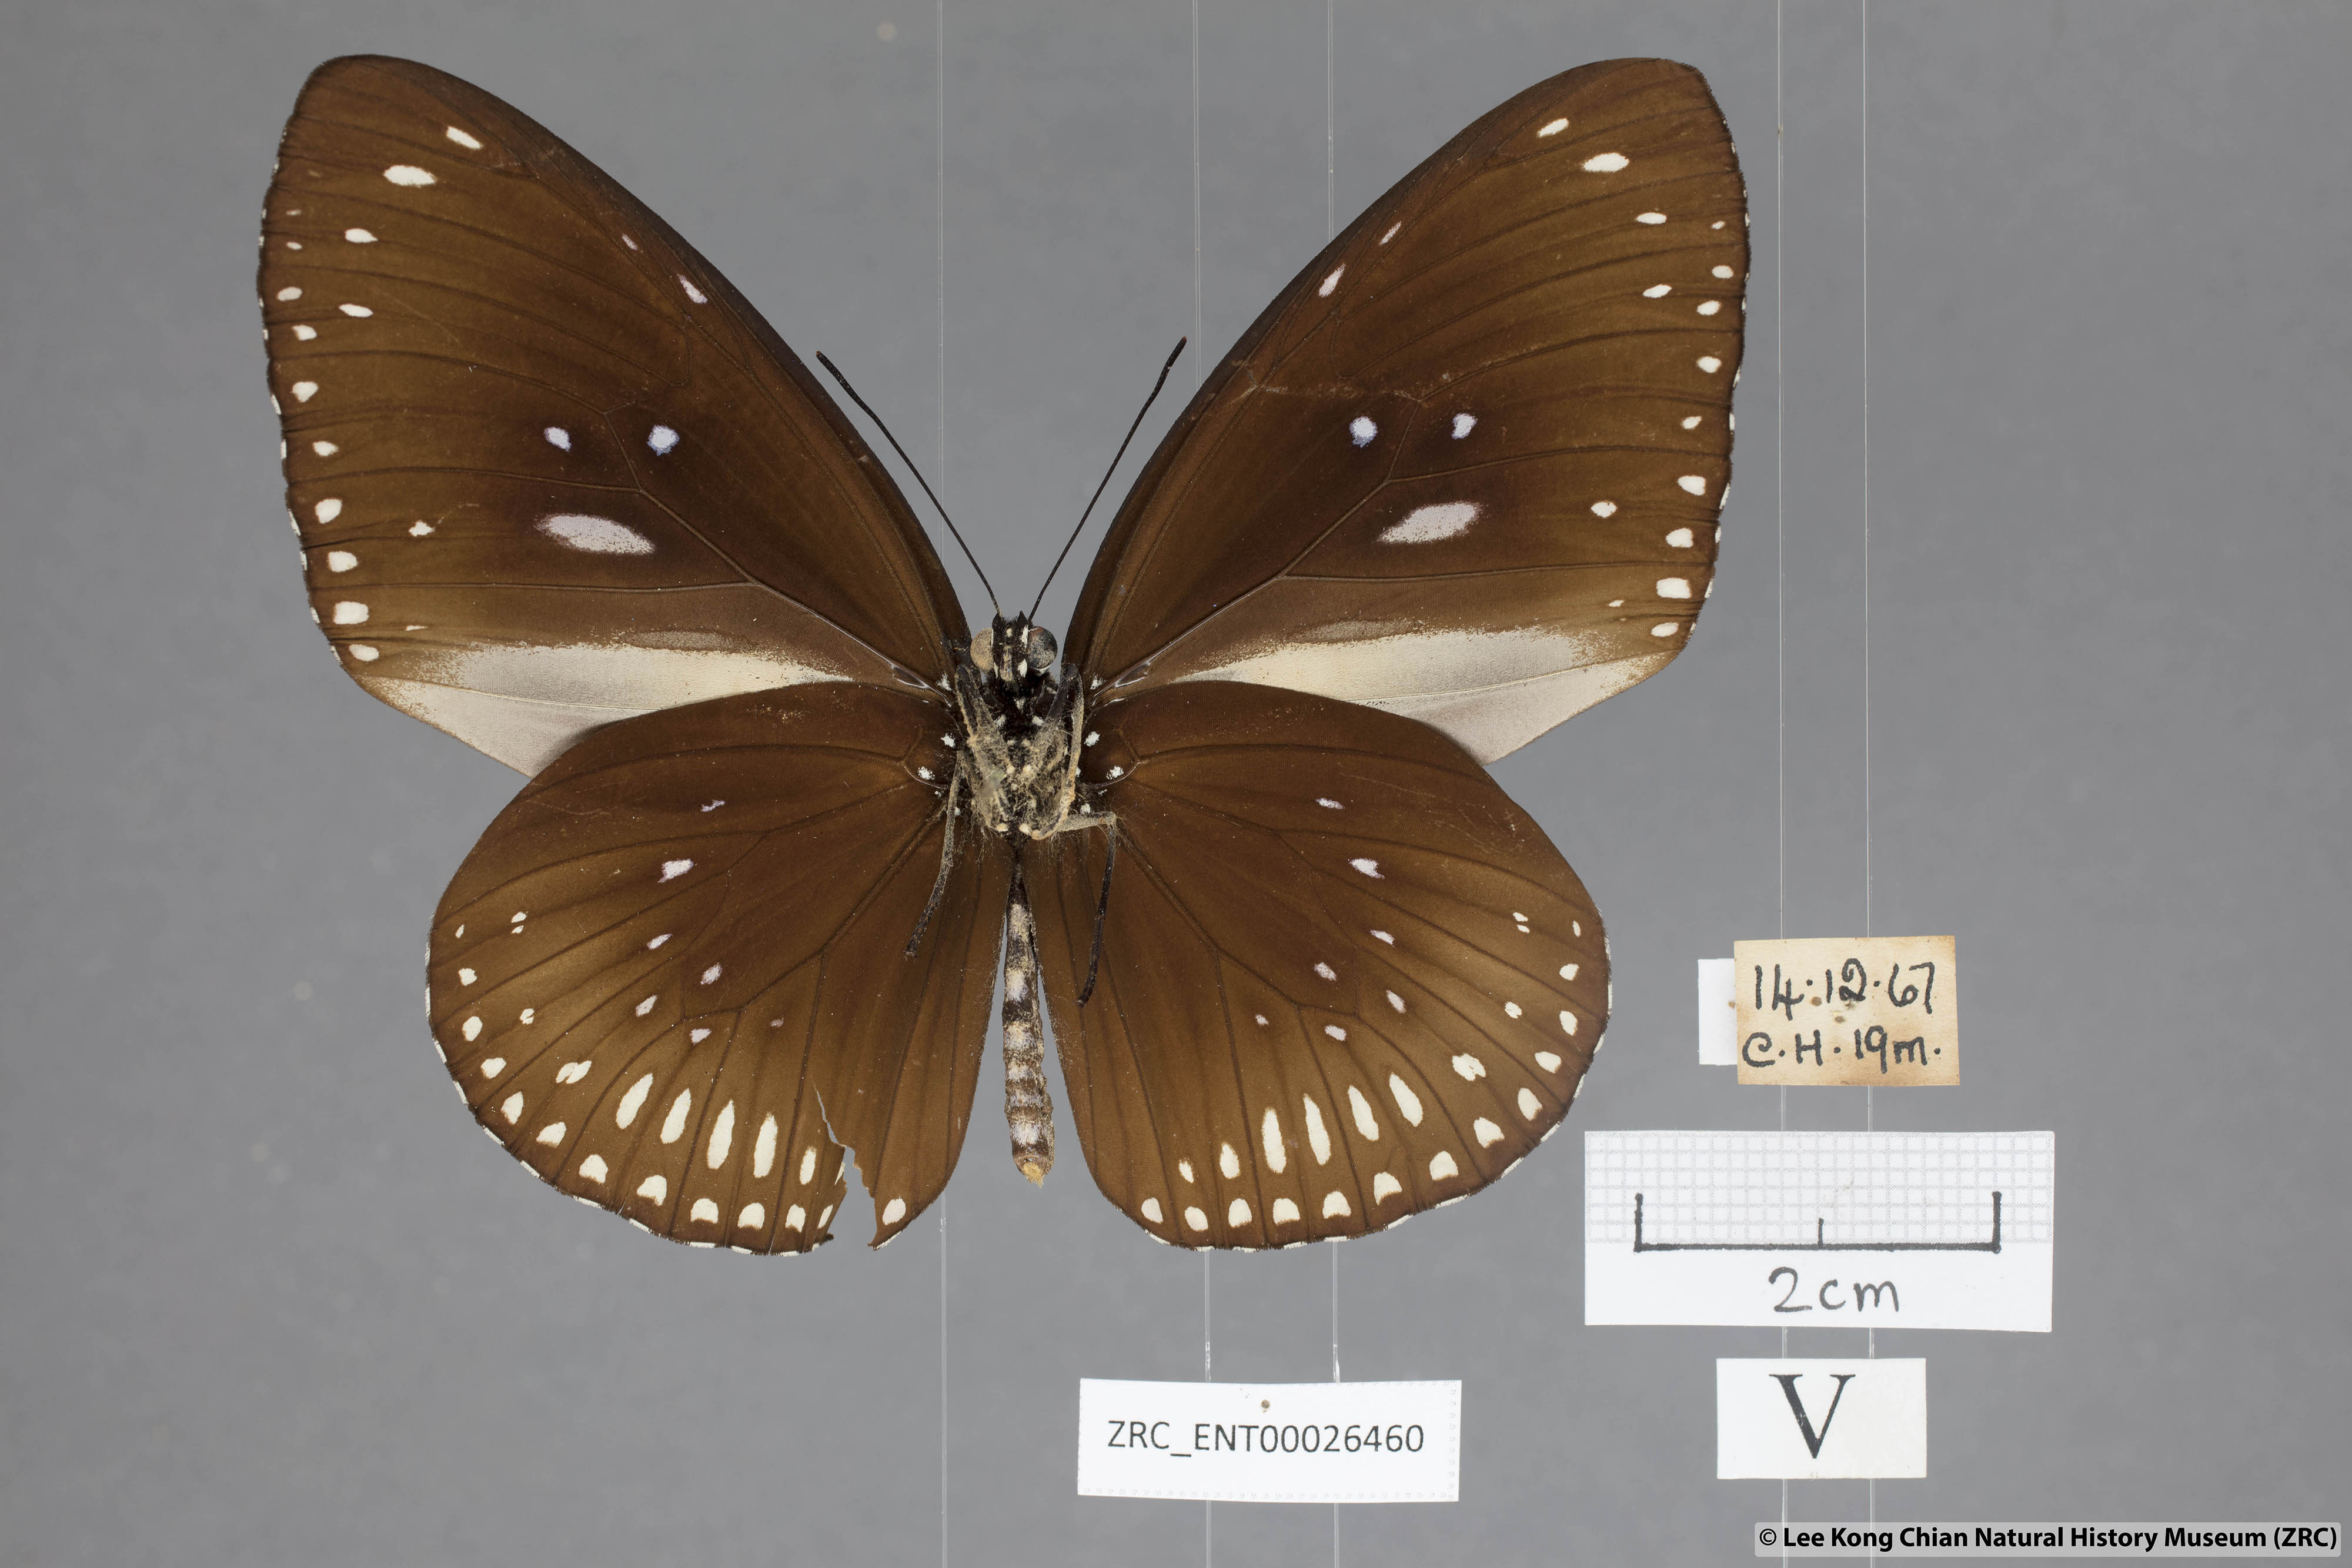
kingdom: Animalia
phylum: Arthropoda
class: Insecta
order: Lepidoptera
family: Nymphalidae
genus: Euploea
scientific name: Euploea midamus
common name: Blue-spotted crow butterfly
